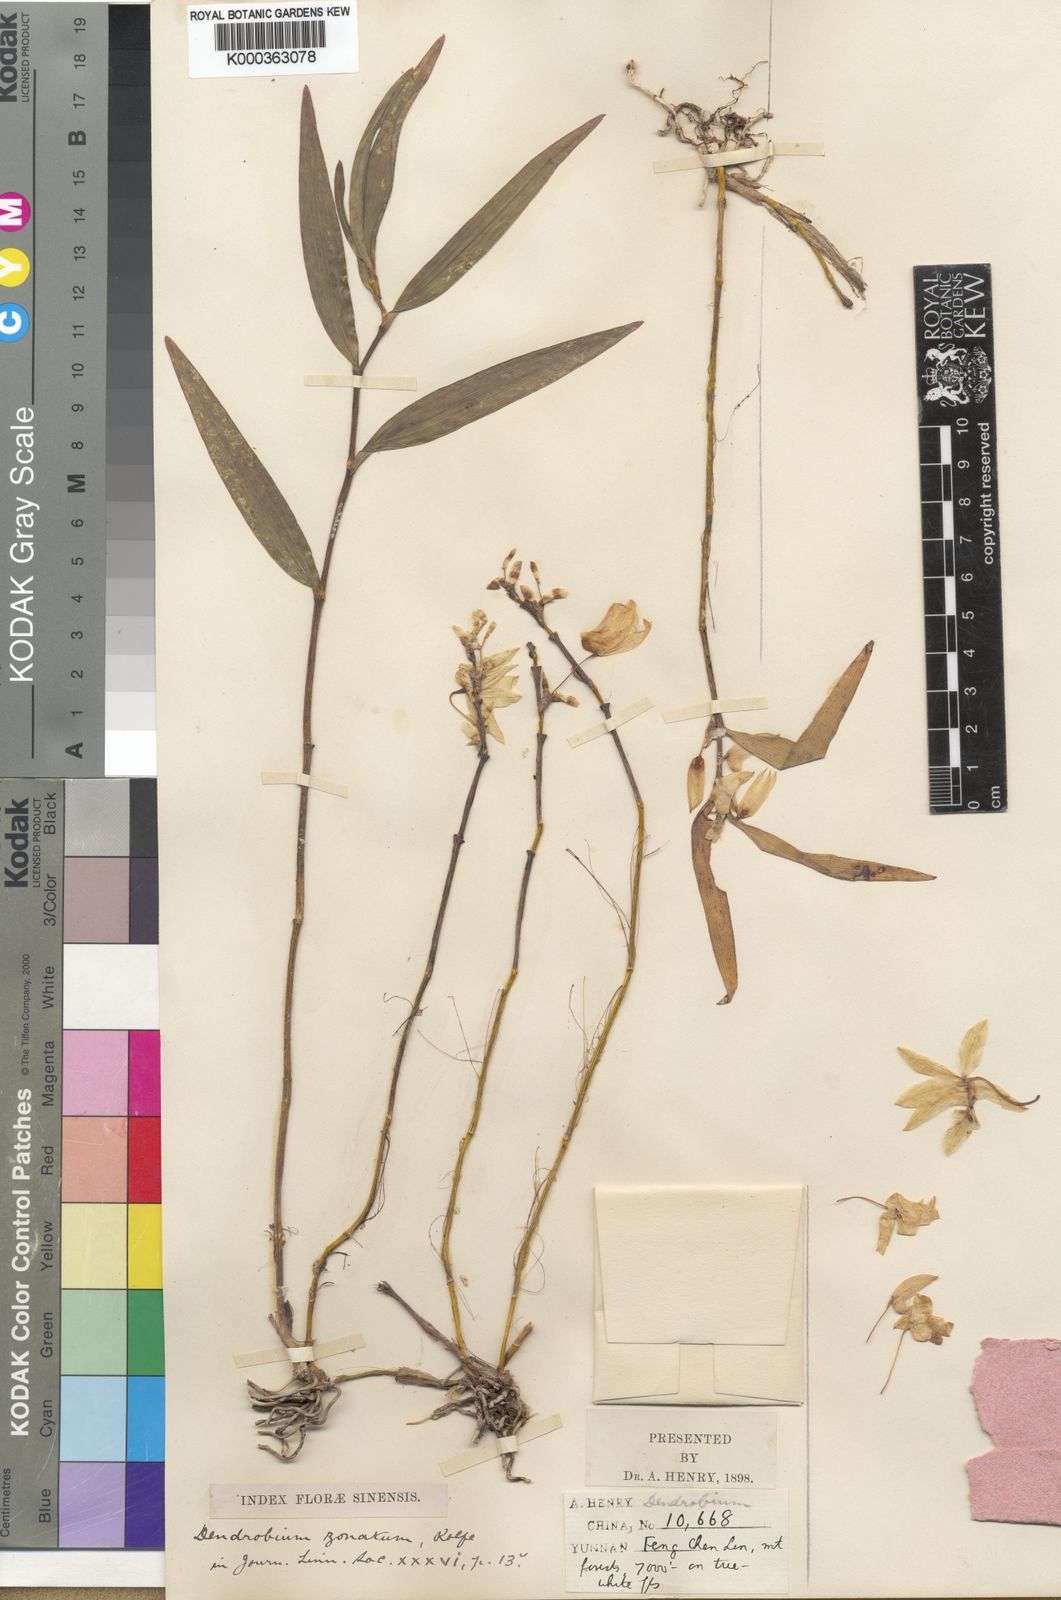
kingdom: Plantae
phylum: Tracheophyta
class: Liliopsida
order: Asparagales
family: Orchidaceae
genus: Dendrobium
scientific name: Dendrobium moniliforme
